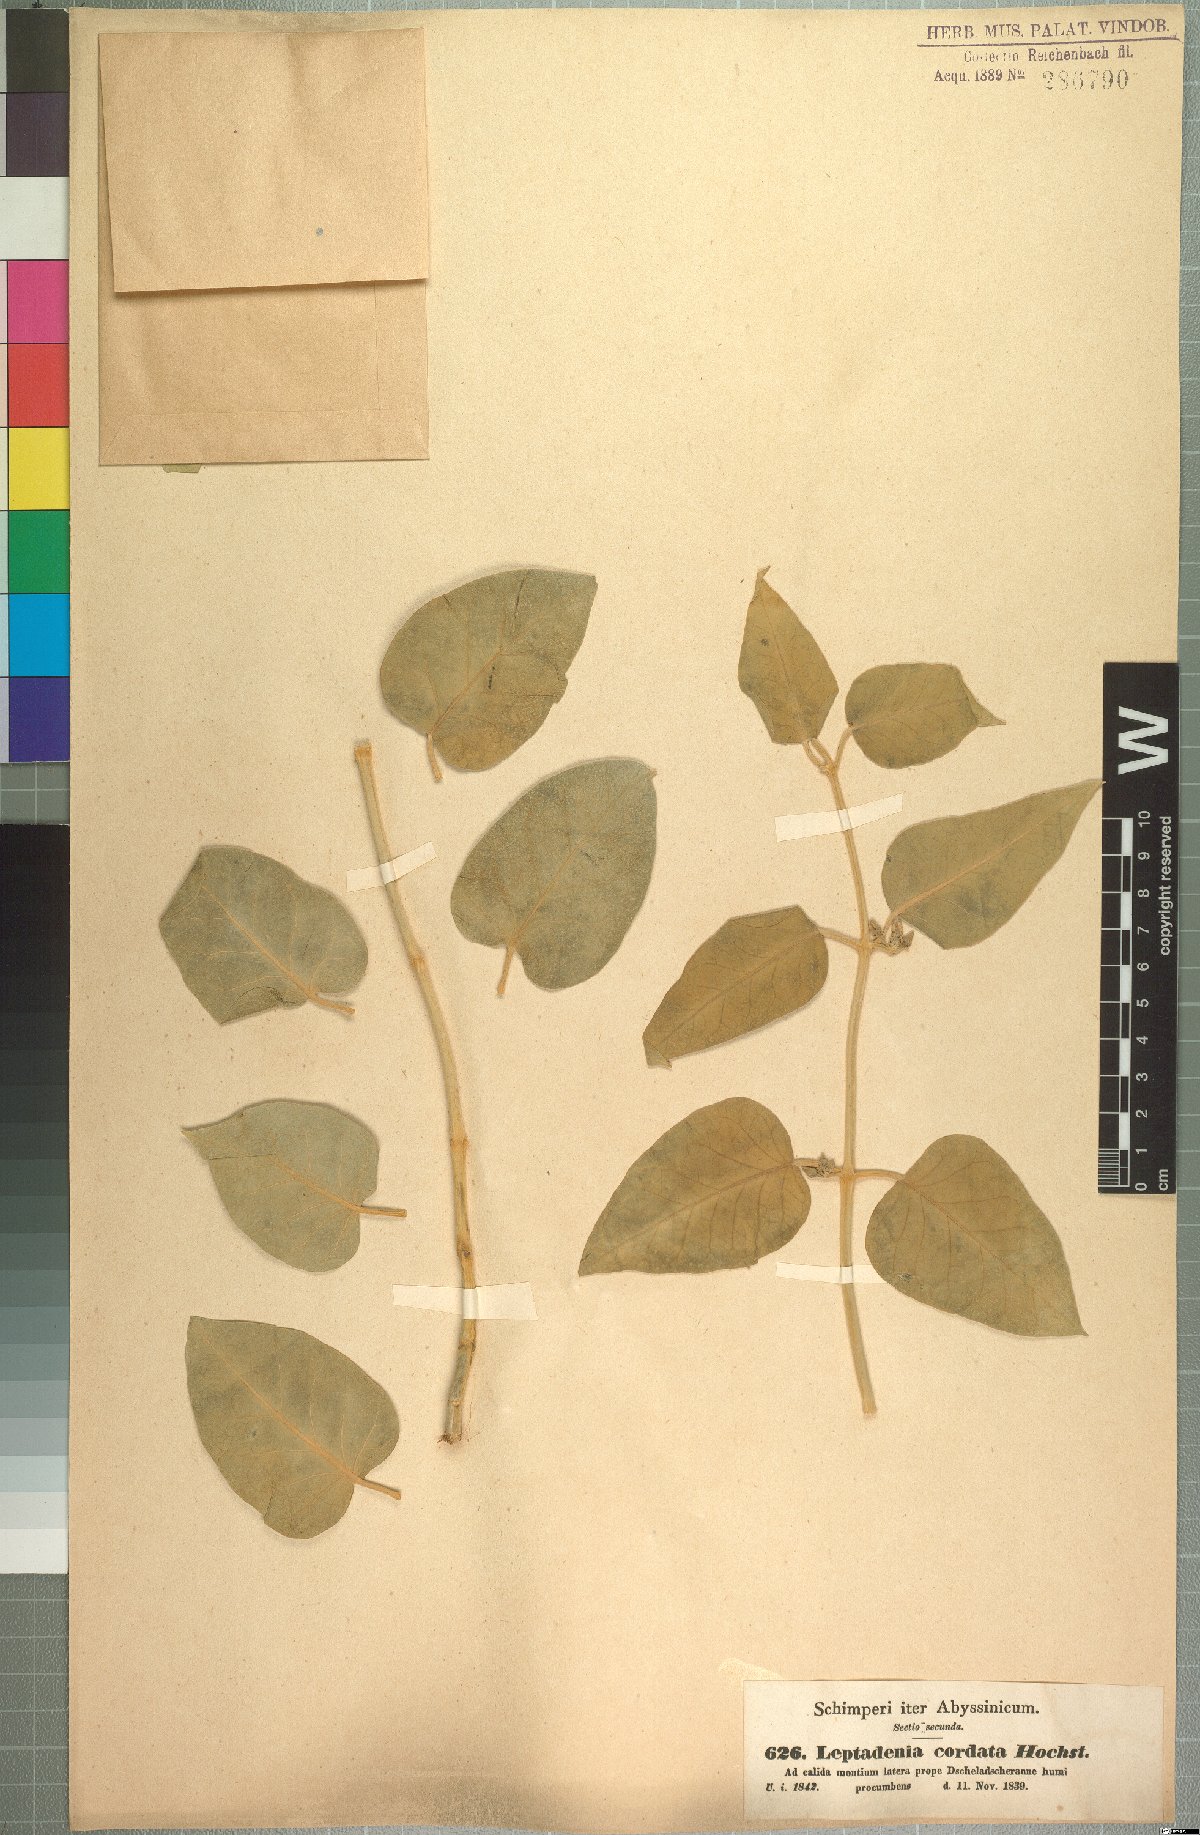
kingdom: Plantae
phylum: Tracheophyta
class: Magnoliopsida
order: Gentianales
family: Apocynaceae
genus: Leptadenia
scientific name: Leptadenia lanceolata
